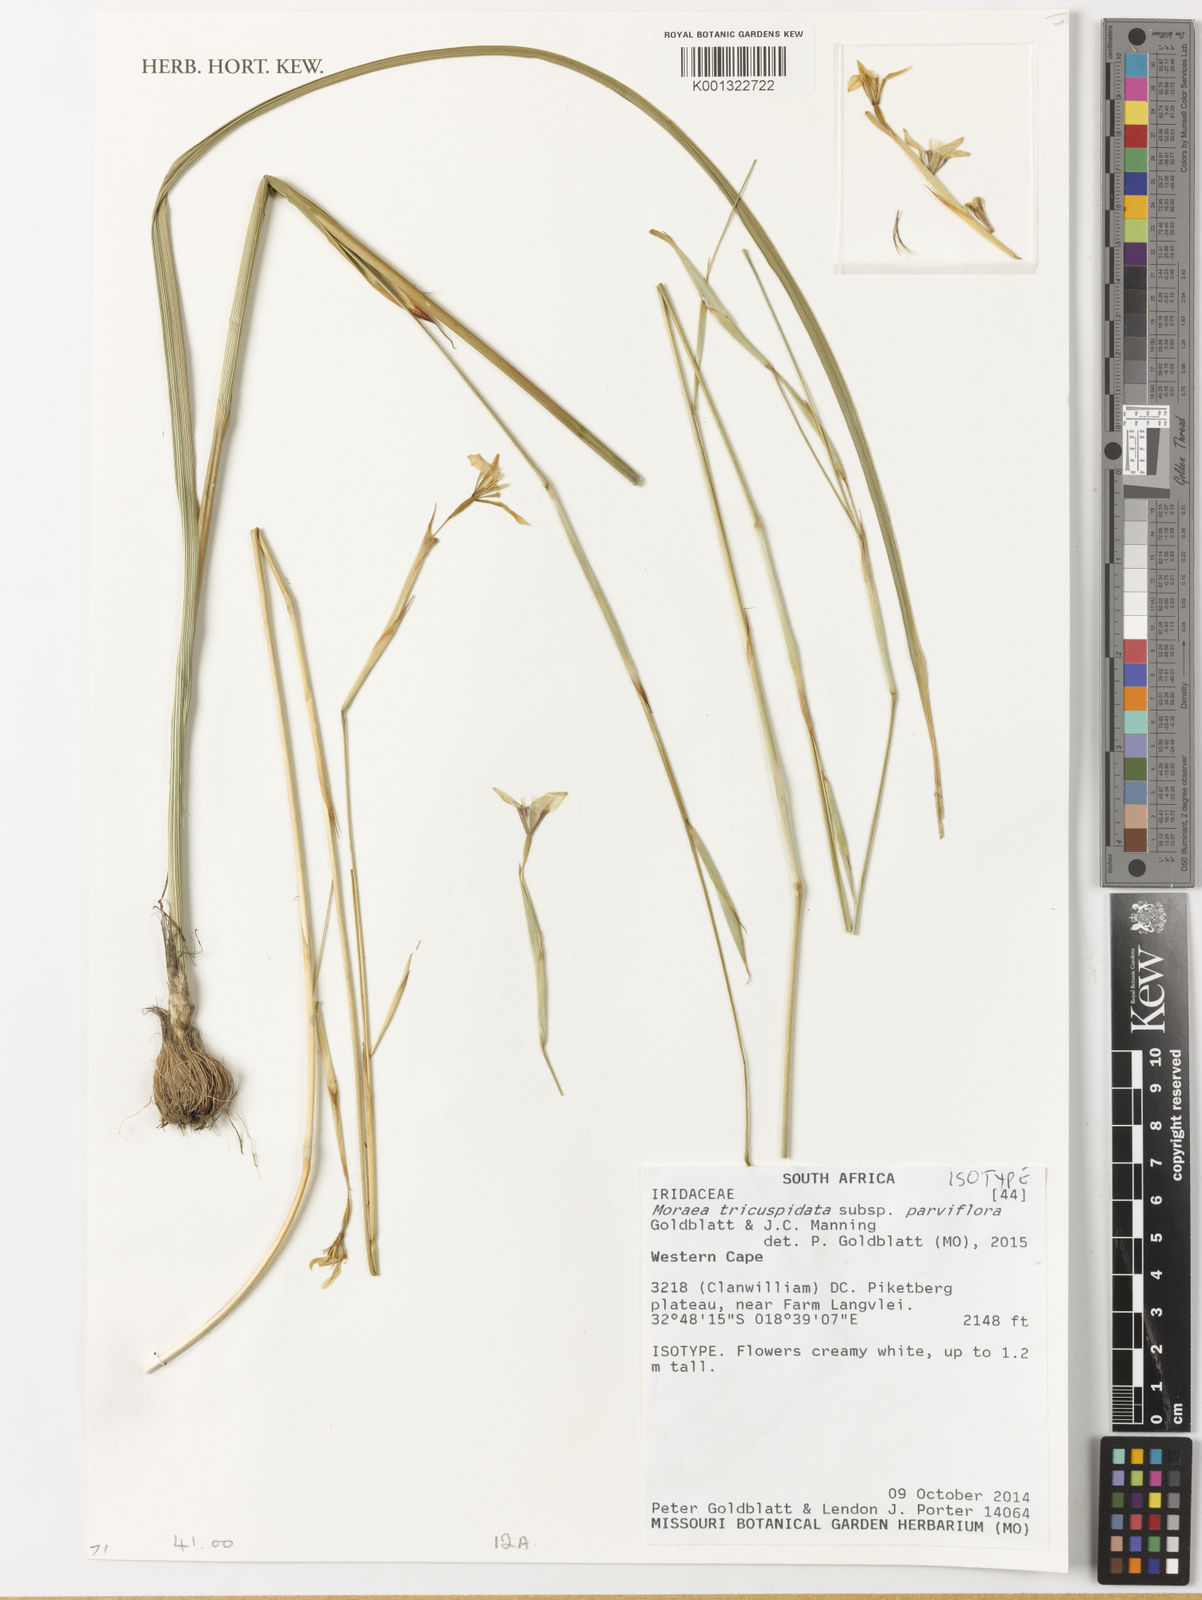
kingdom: Plantae
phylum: Tracheophyta
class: Liliopsida
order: Asparagales
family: Iridaceae
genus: Moraea
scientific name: Moraea tricuspidata
